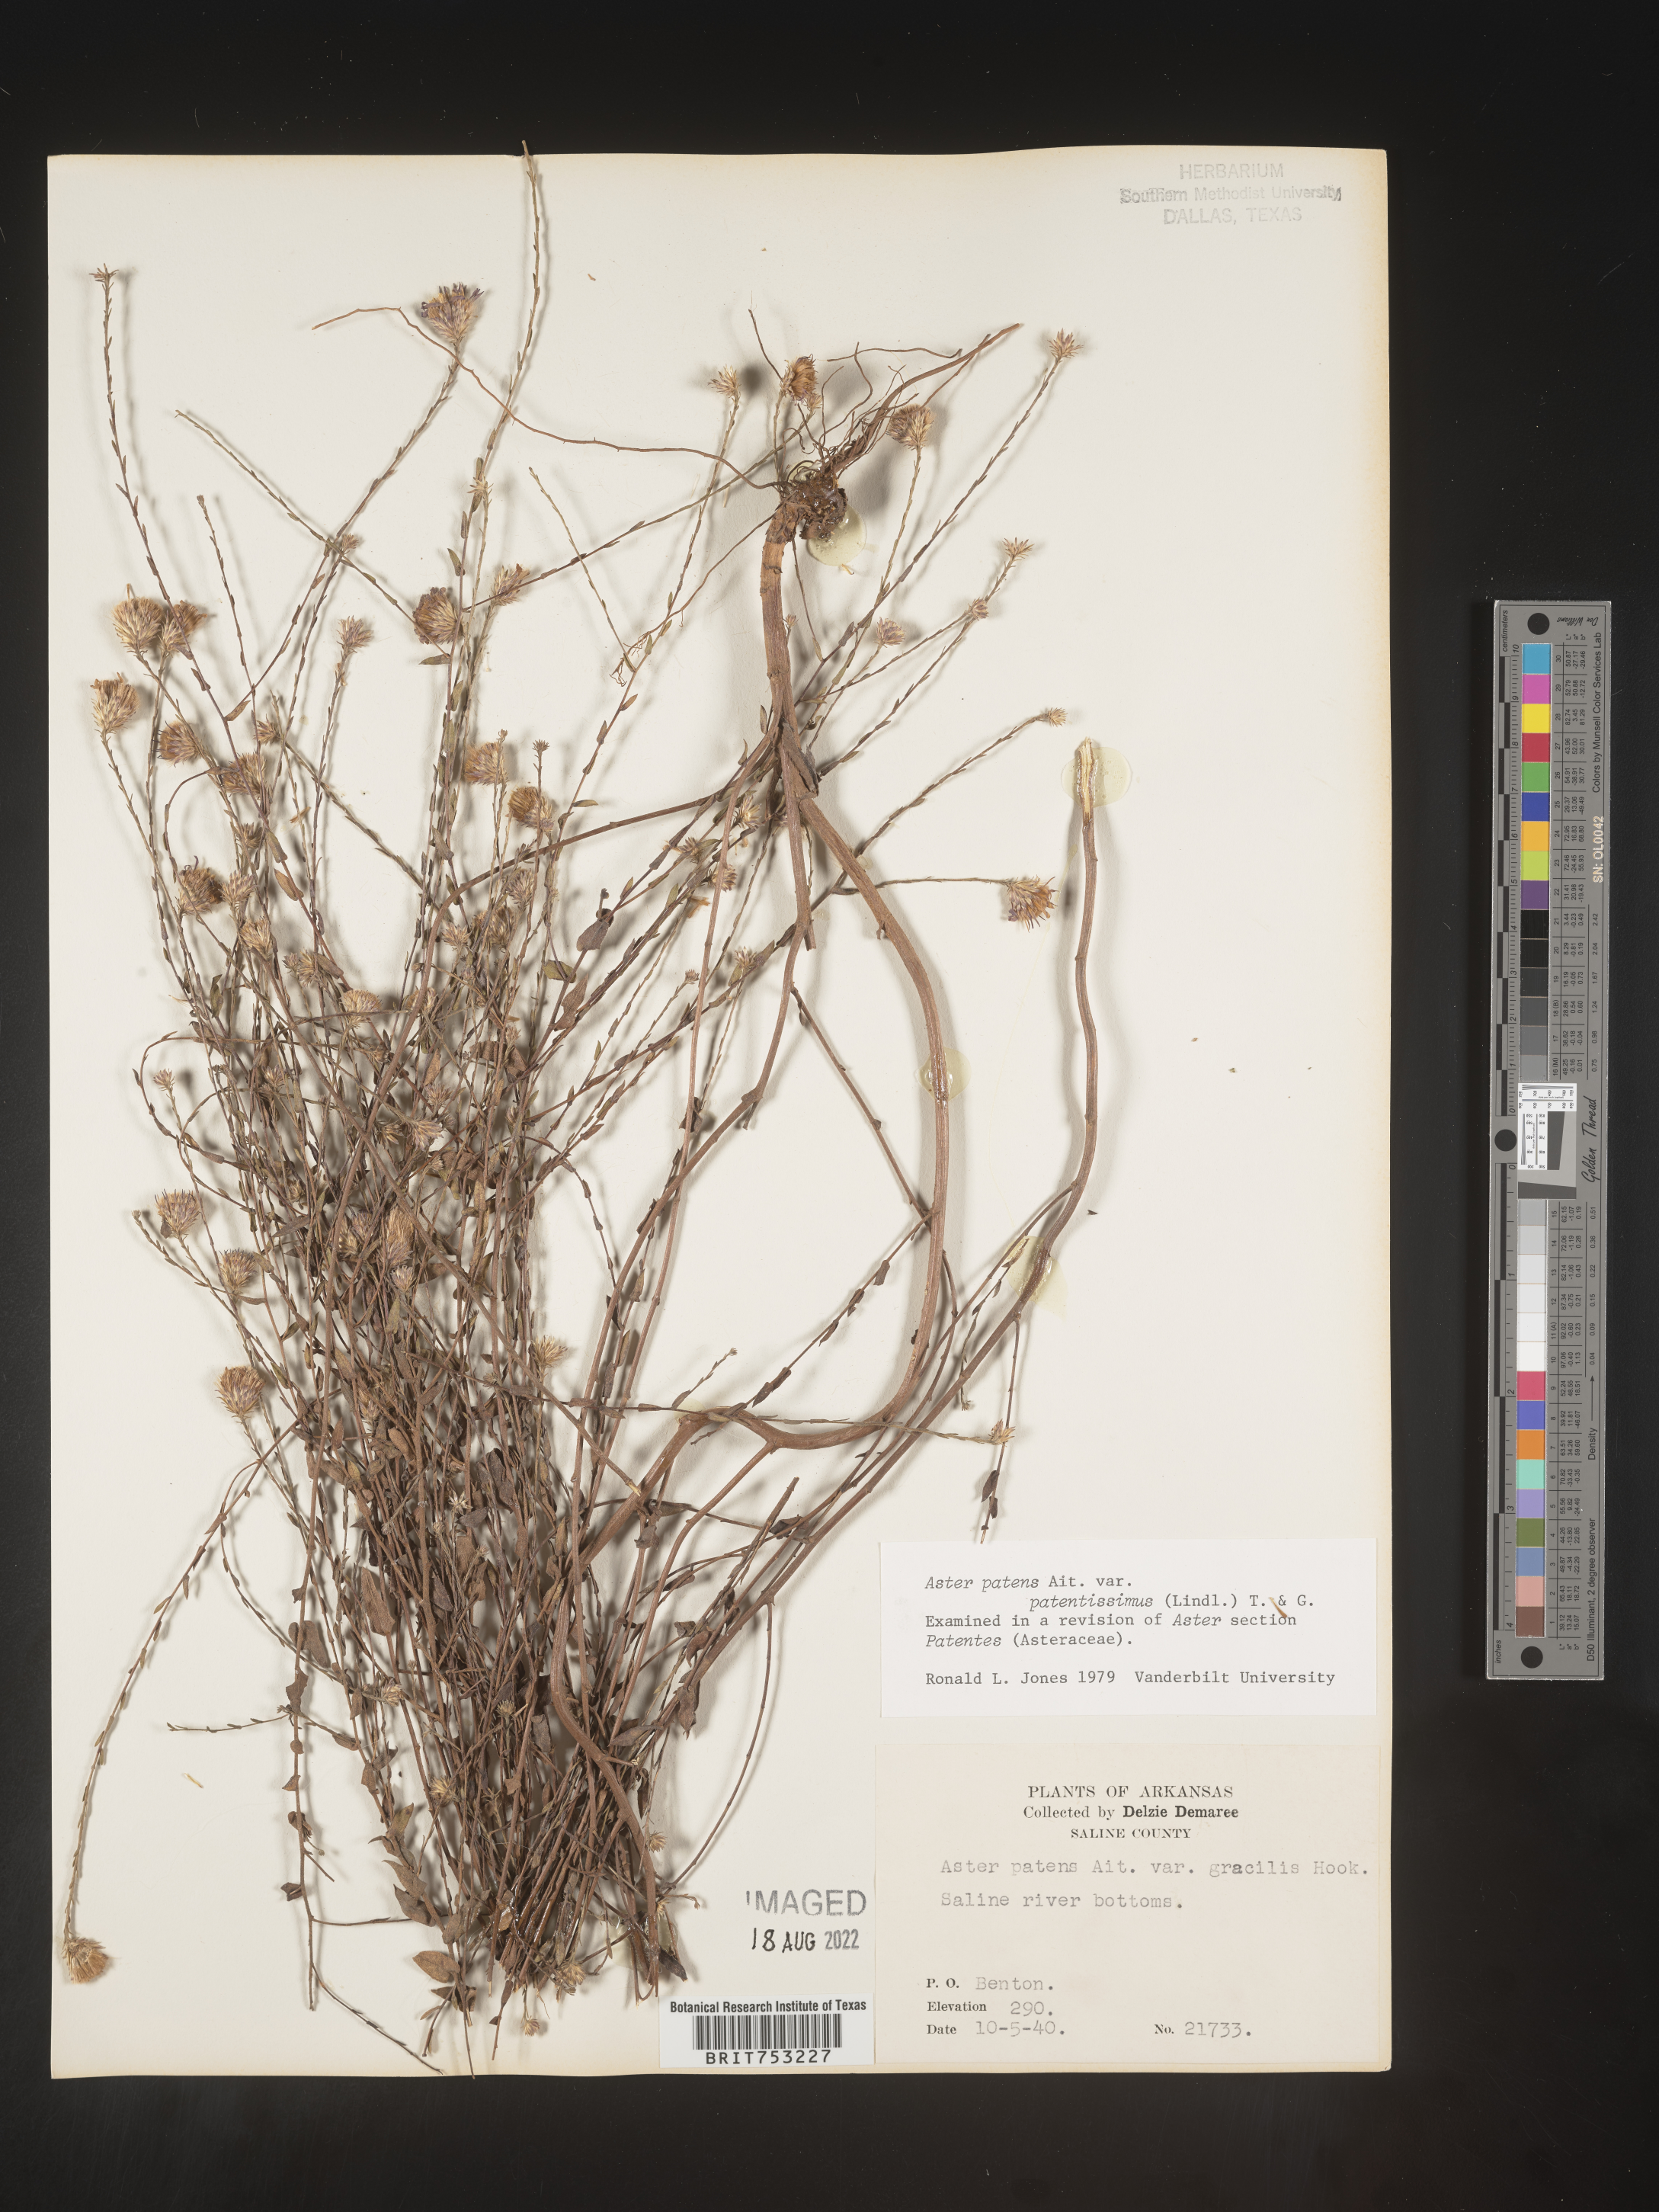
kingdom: Plantae
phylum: Tracheophyta
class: Magnoliopsida
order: Asterales
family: Asteraceae
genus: Symphyotrichum
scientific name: Symphyotrichum patens
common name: Late purple aster
